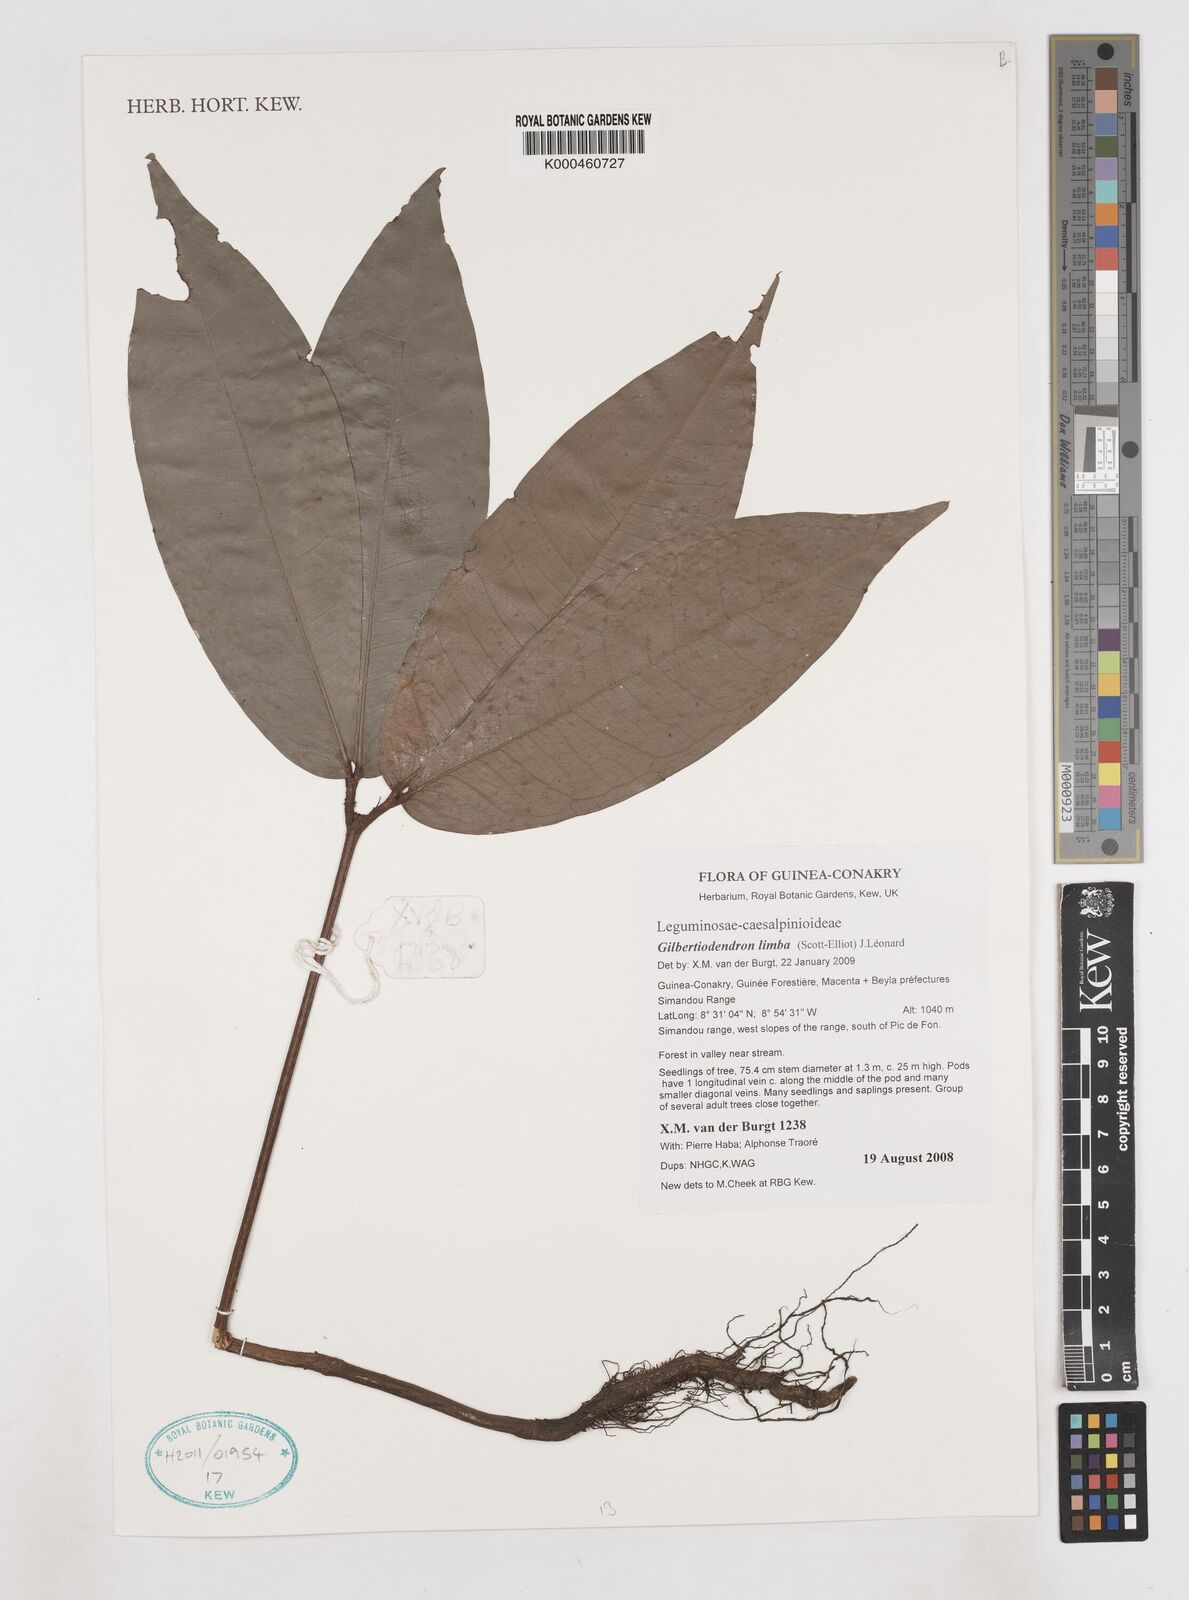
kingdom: Plantae
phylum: Tracheophyta
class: Magnoliopsida
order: Fabales
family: Fabaceae
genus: Gilbertiodendron
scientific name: Gilbertiodendron limba
